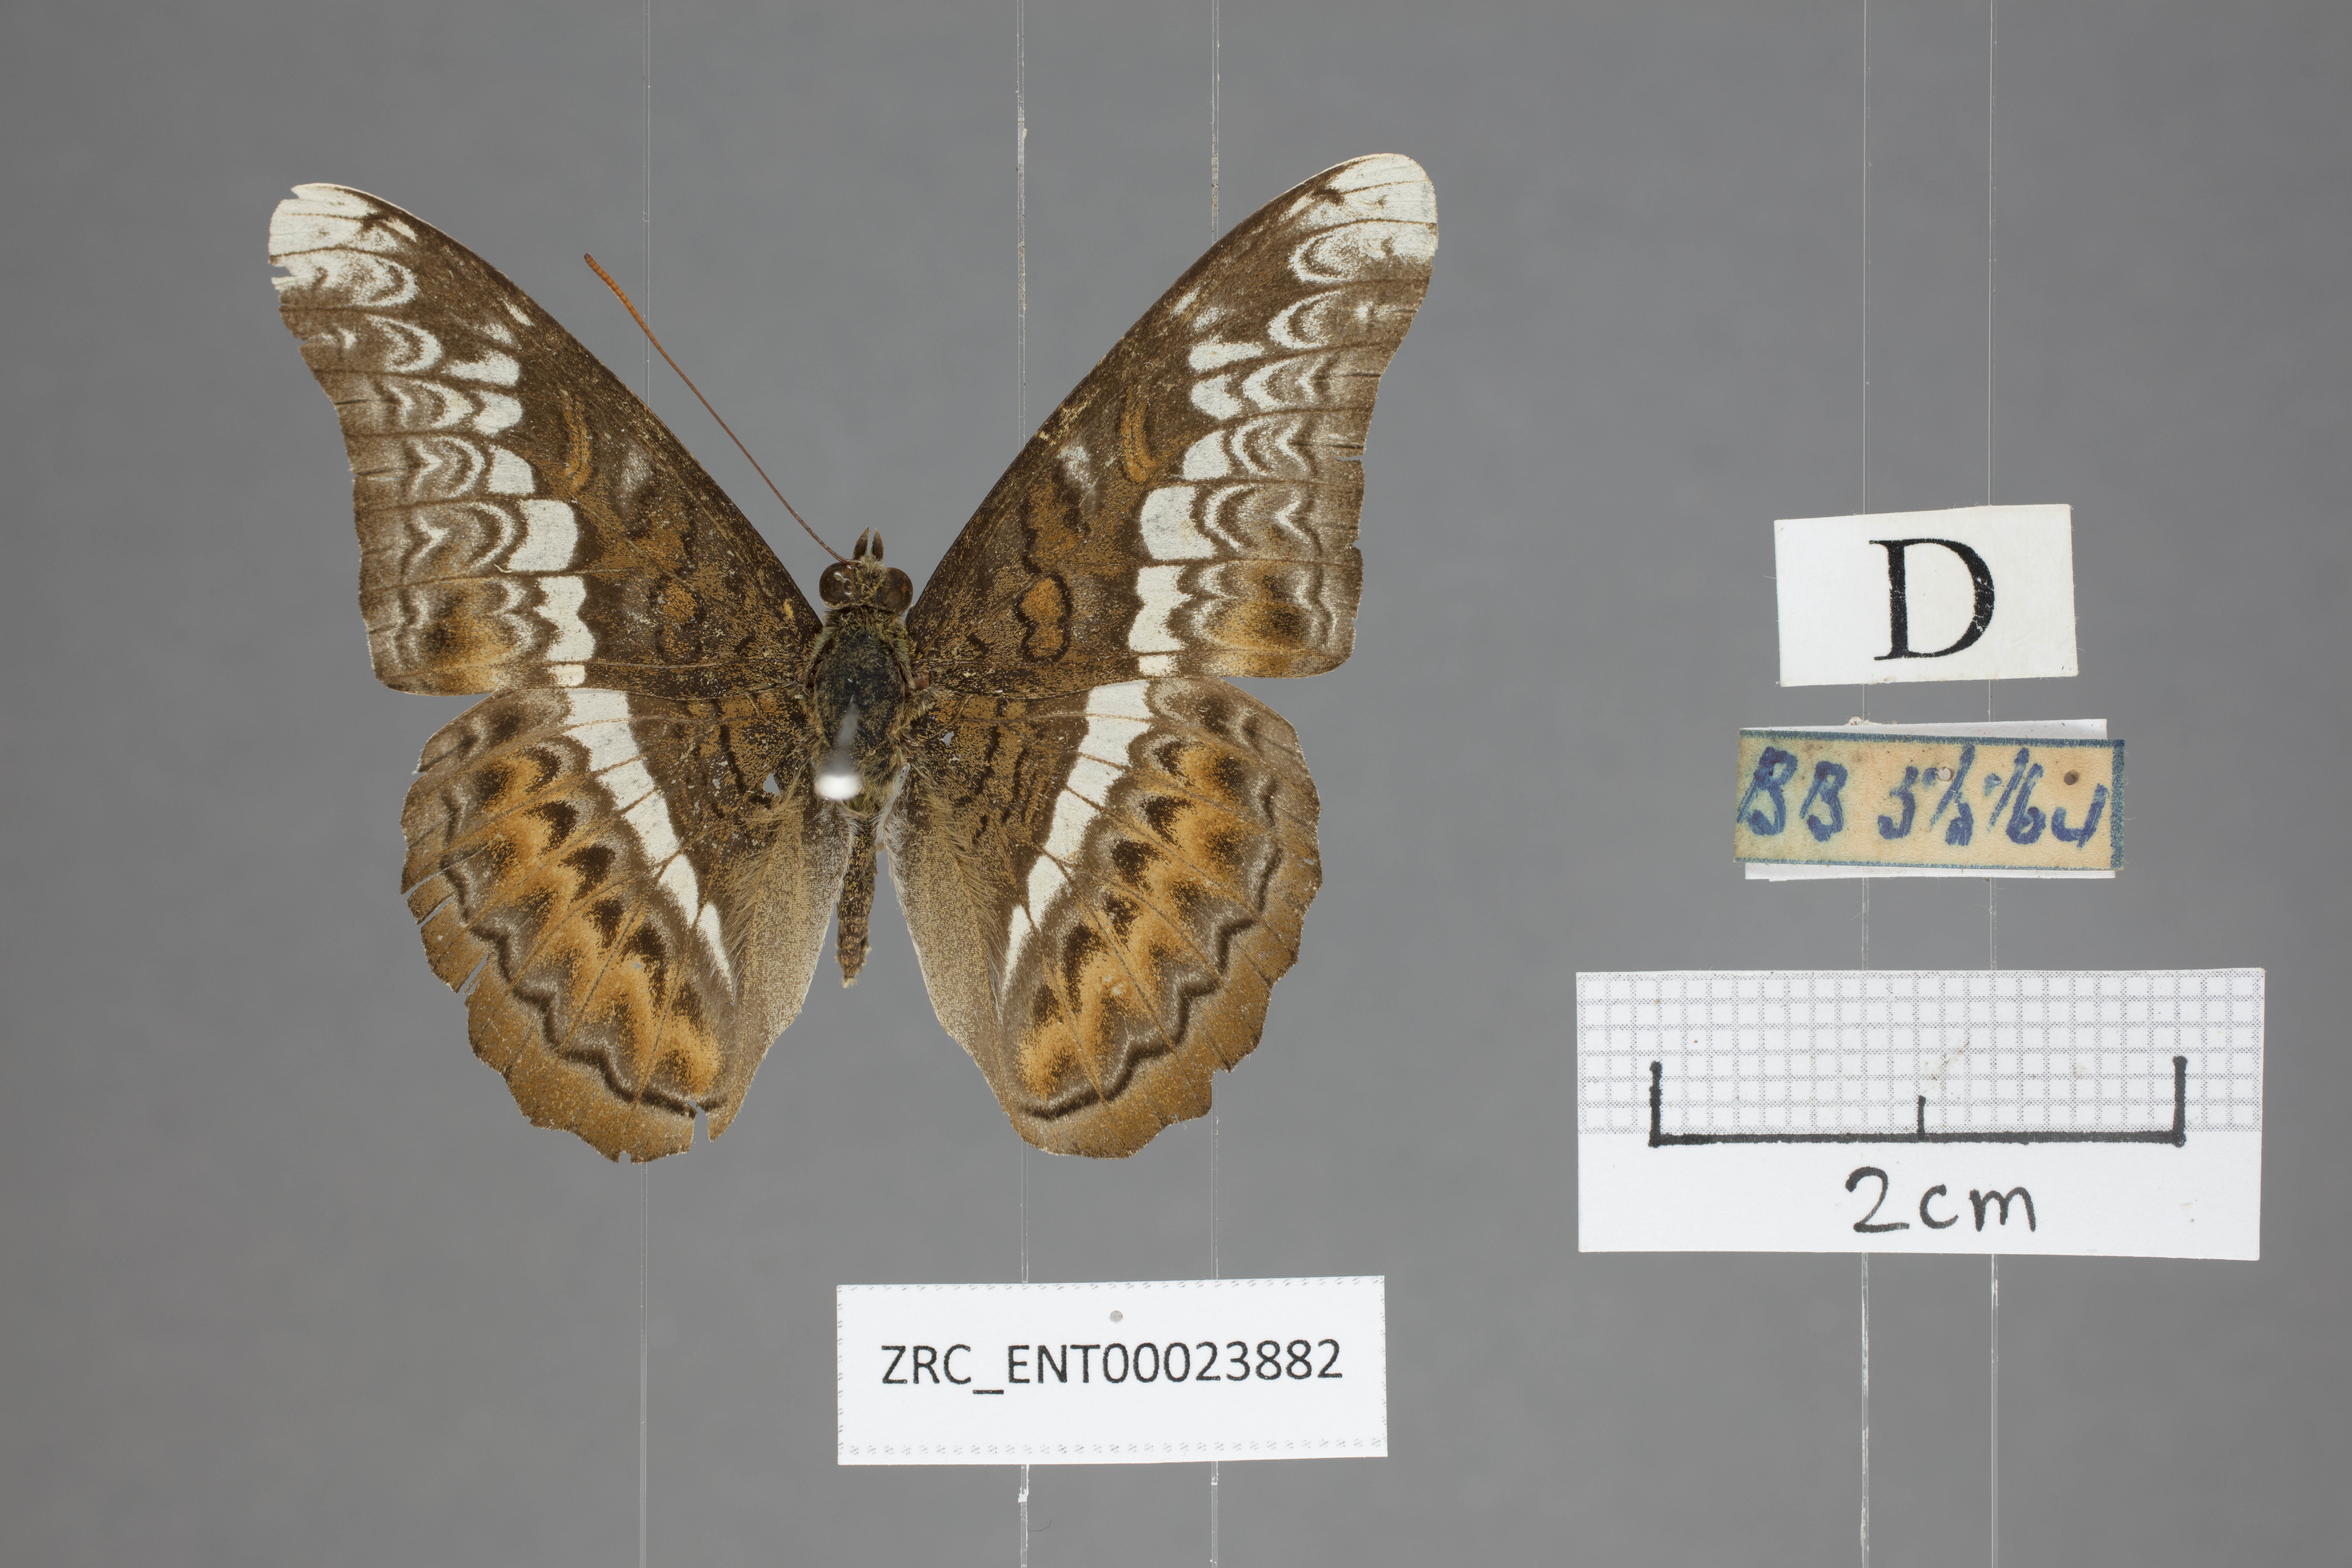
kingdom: Animalia
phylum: Arthropoda
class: Insecta
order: Lepidoptera
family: Nymphalidae
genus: Lebadea
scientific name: Lebadea martha
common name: Knight
